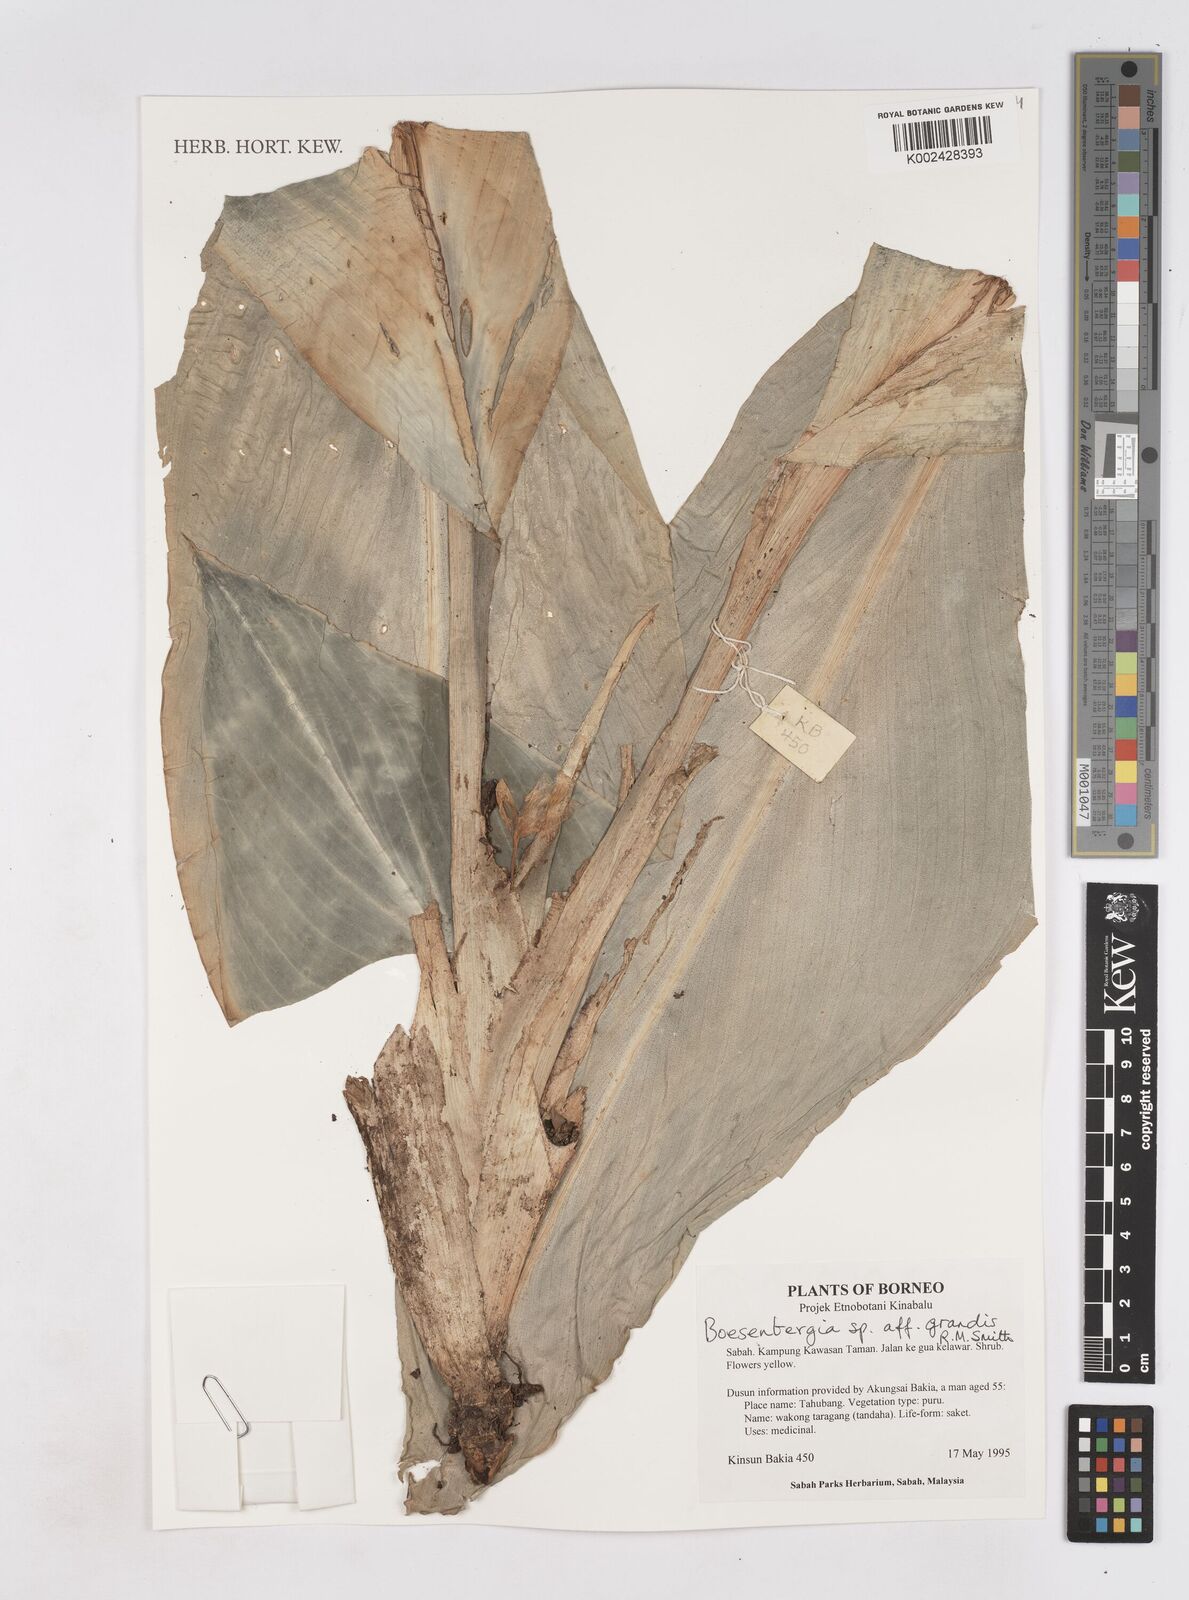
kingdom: Plantae
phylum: Tracheophyta
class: Liliopsida
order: Zingiberales
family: Zingiberaceae
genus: Boesenbergia
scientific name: Boesenbergia grandis
